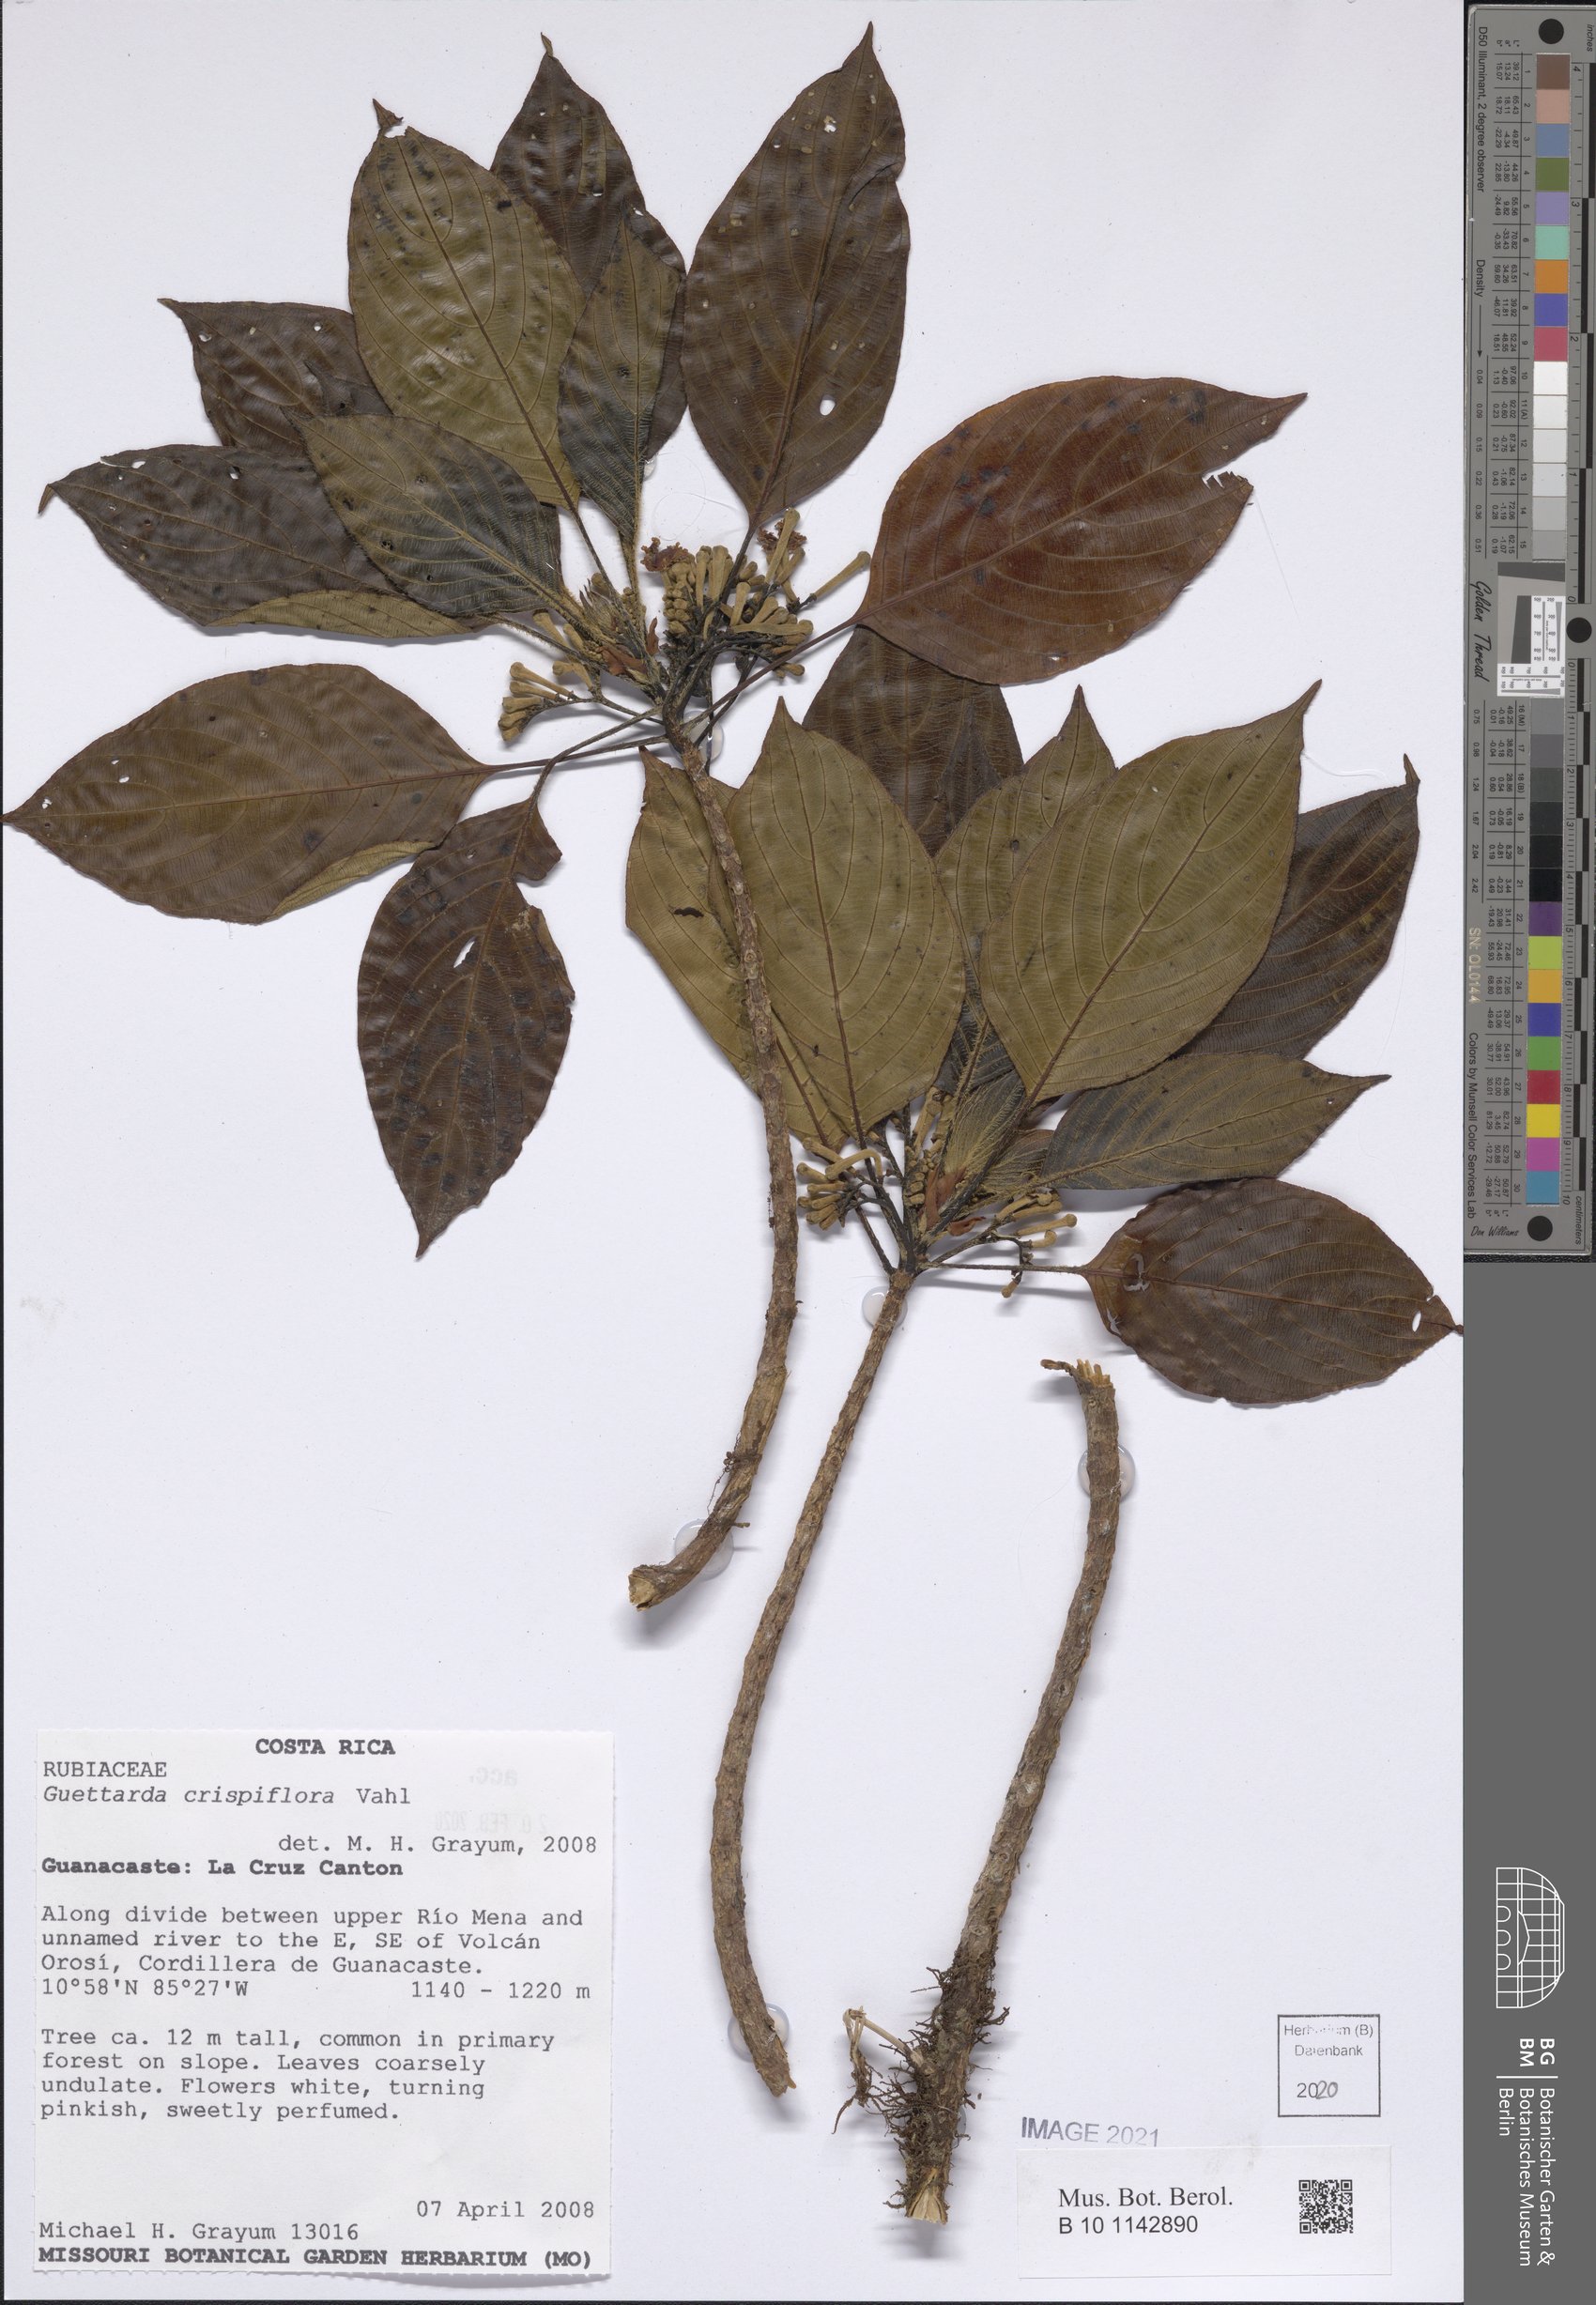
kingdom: Plantae
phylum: Tracheophyta
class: Magnoliopsida
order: Gentianales
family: Rubiaceae
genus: Tournefortiopsis
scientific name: Tournefortiopsis crispiflora
